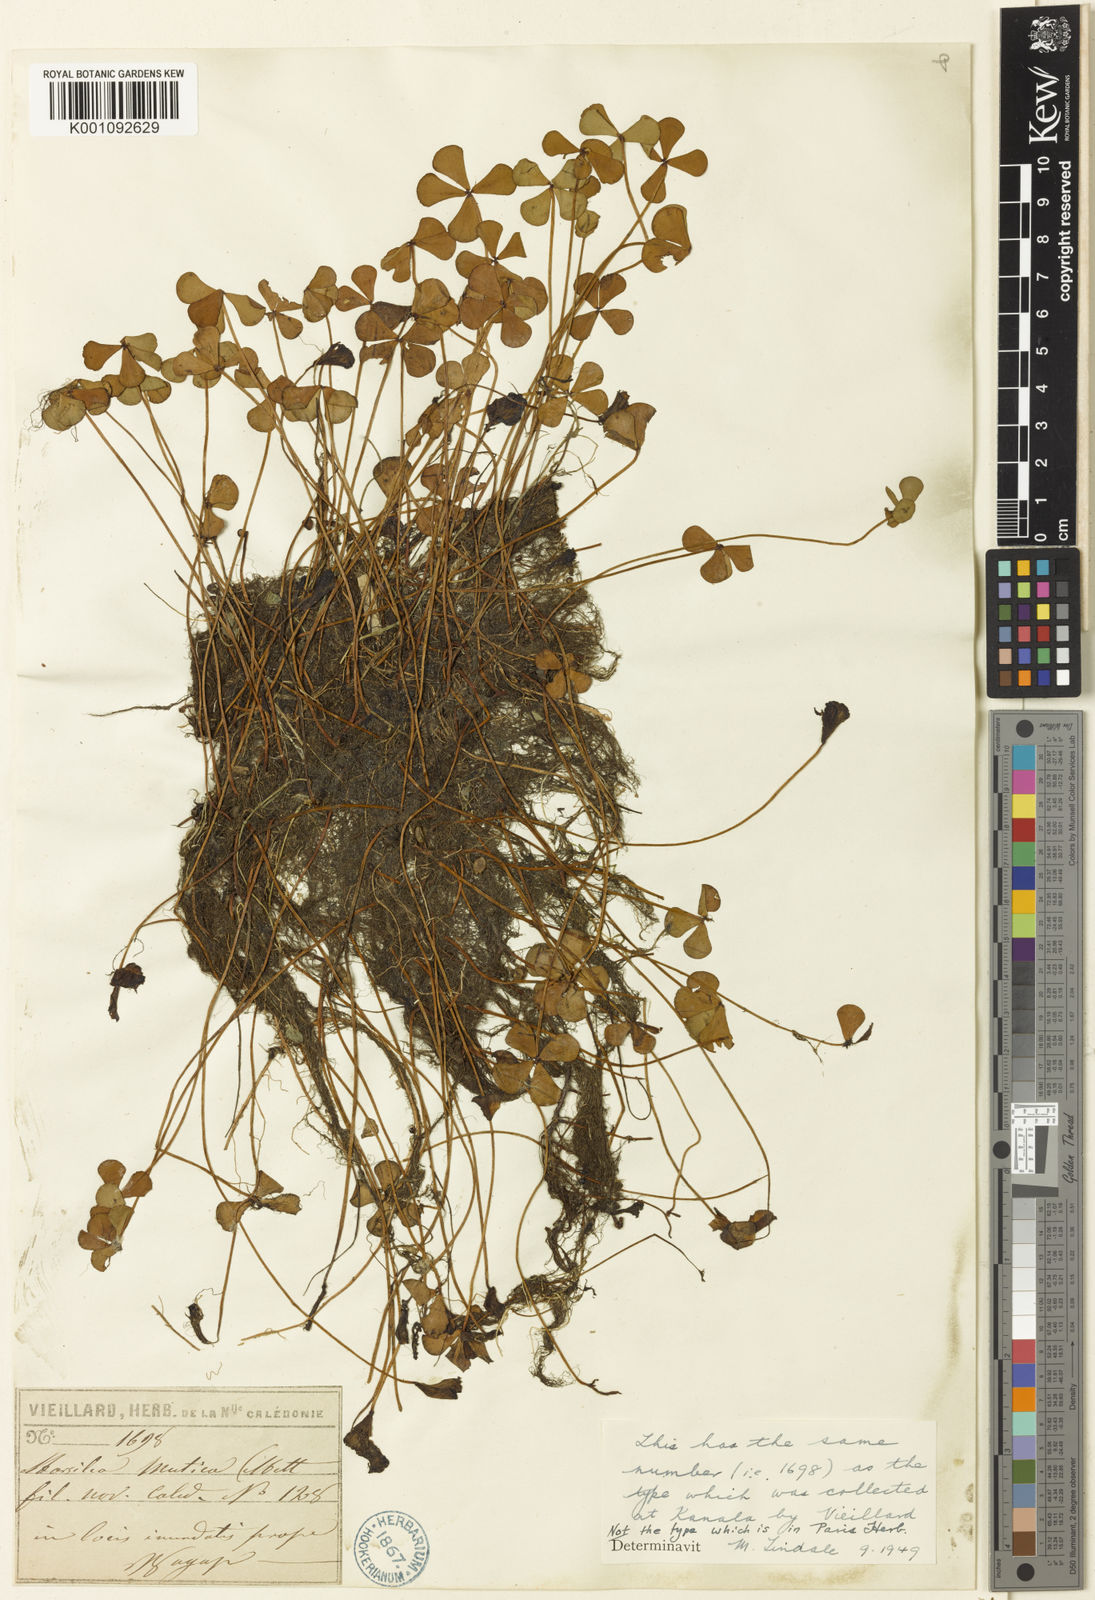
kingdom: Plantae
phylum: Tracheophyta
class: Polypodiopsida
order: Salviniales
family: Marsileaceae
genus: Marsilea
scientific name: Marsilea mutica
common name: Australian water-clover
